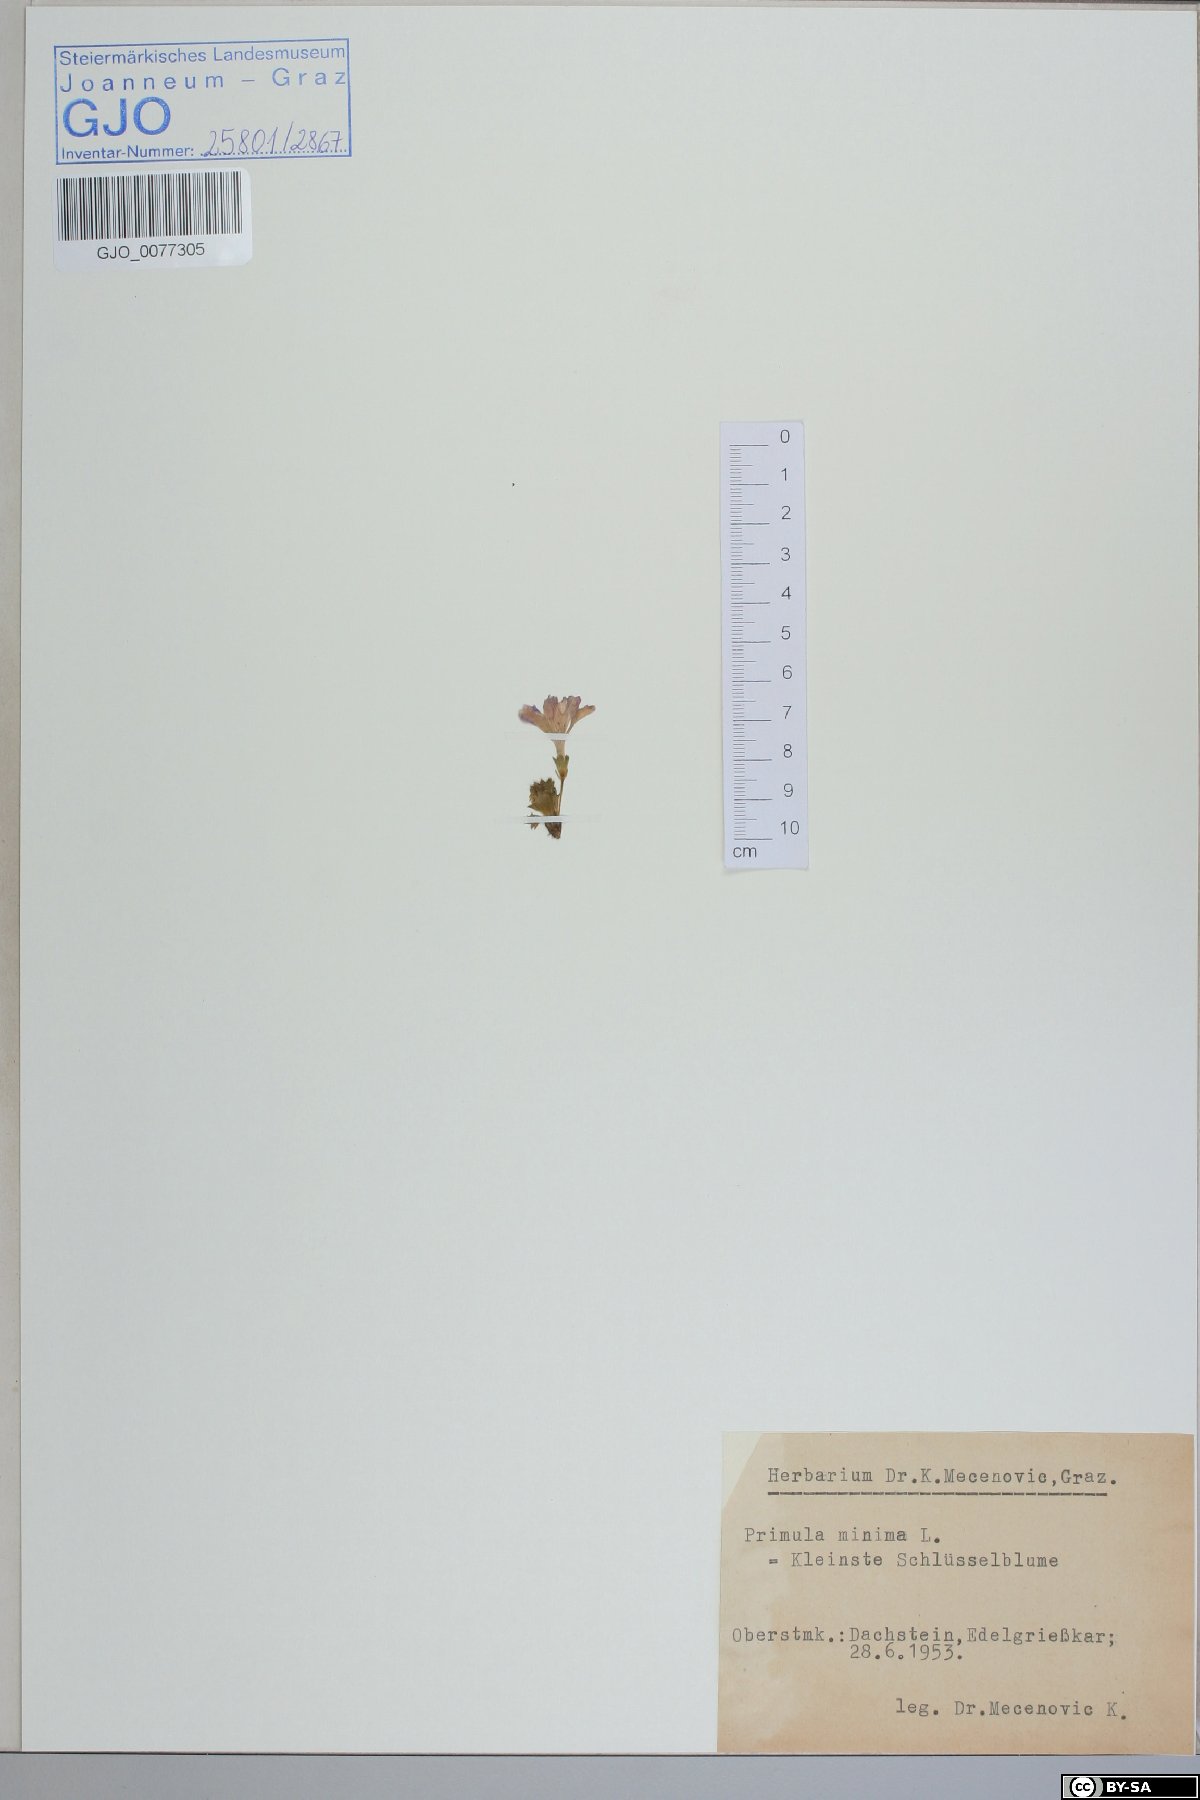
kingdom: Plantae
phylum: Tracheophyta
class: Magnoliopsida
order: Ericales
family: Primulaceae
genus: Primula
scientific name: Primula minima
